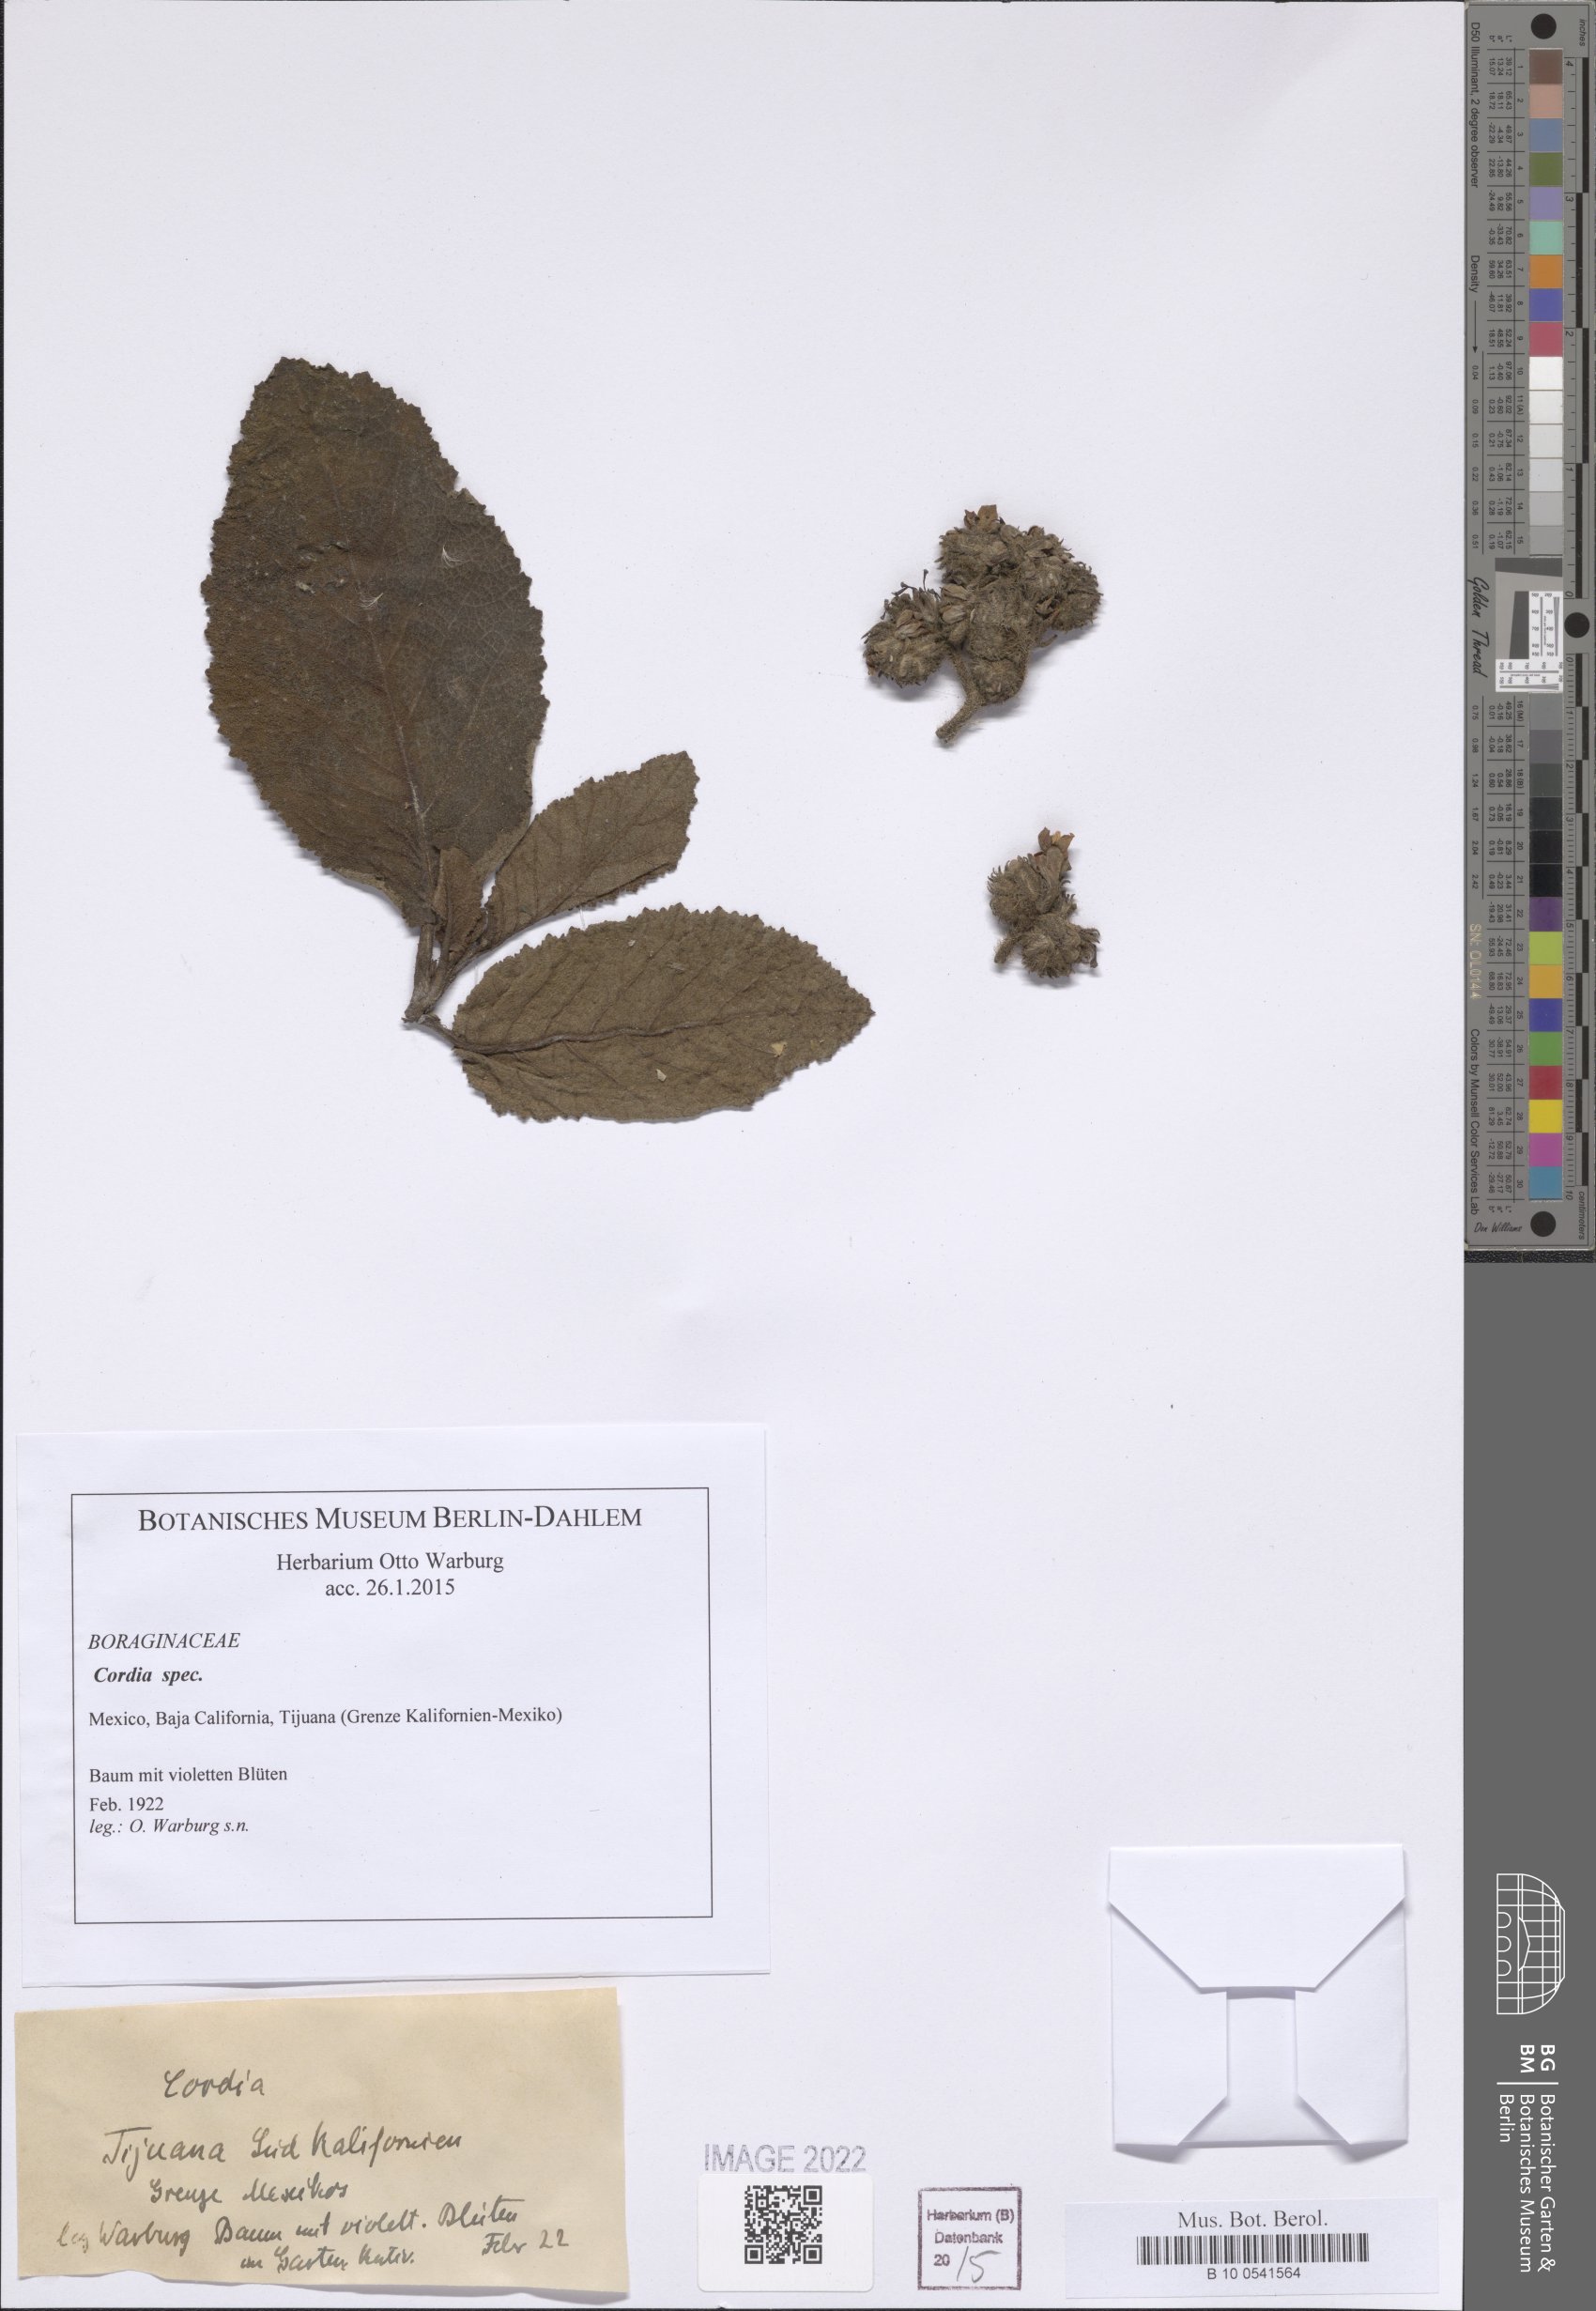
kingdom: Plantae
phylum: Tracheophyta
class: Magnoliopsida
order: Boraginales
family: Cordiaceae
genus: Cordia
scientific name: Cordia
